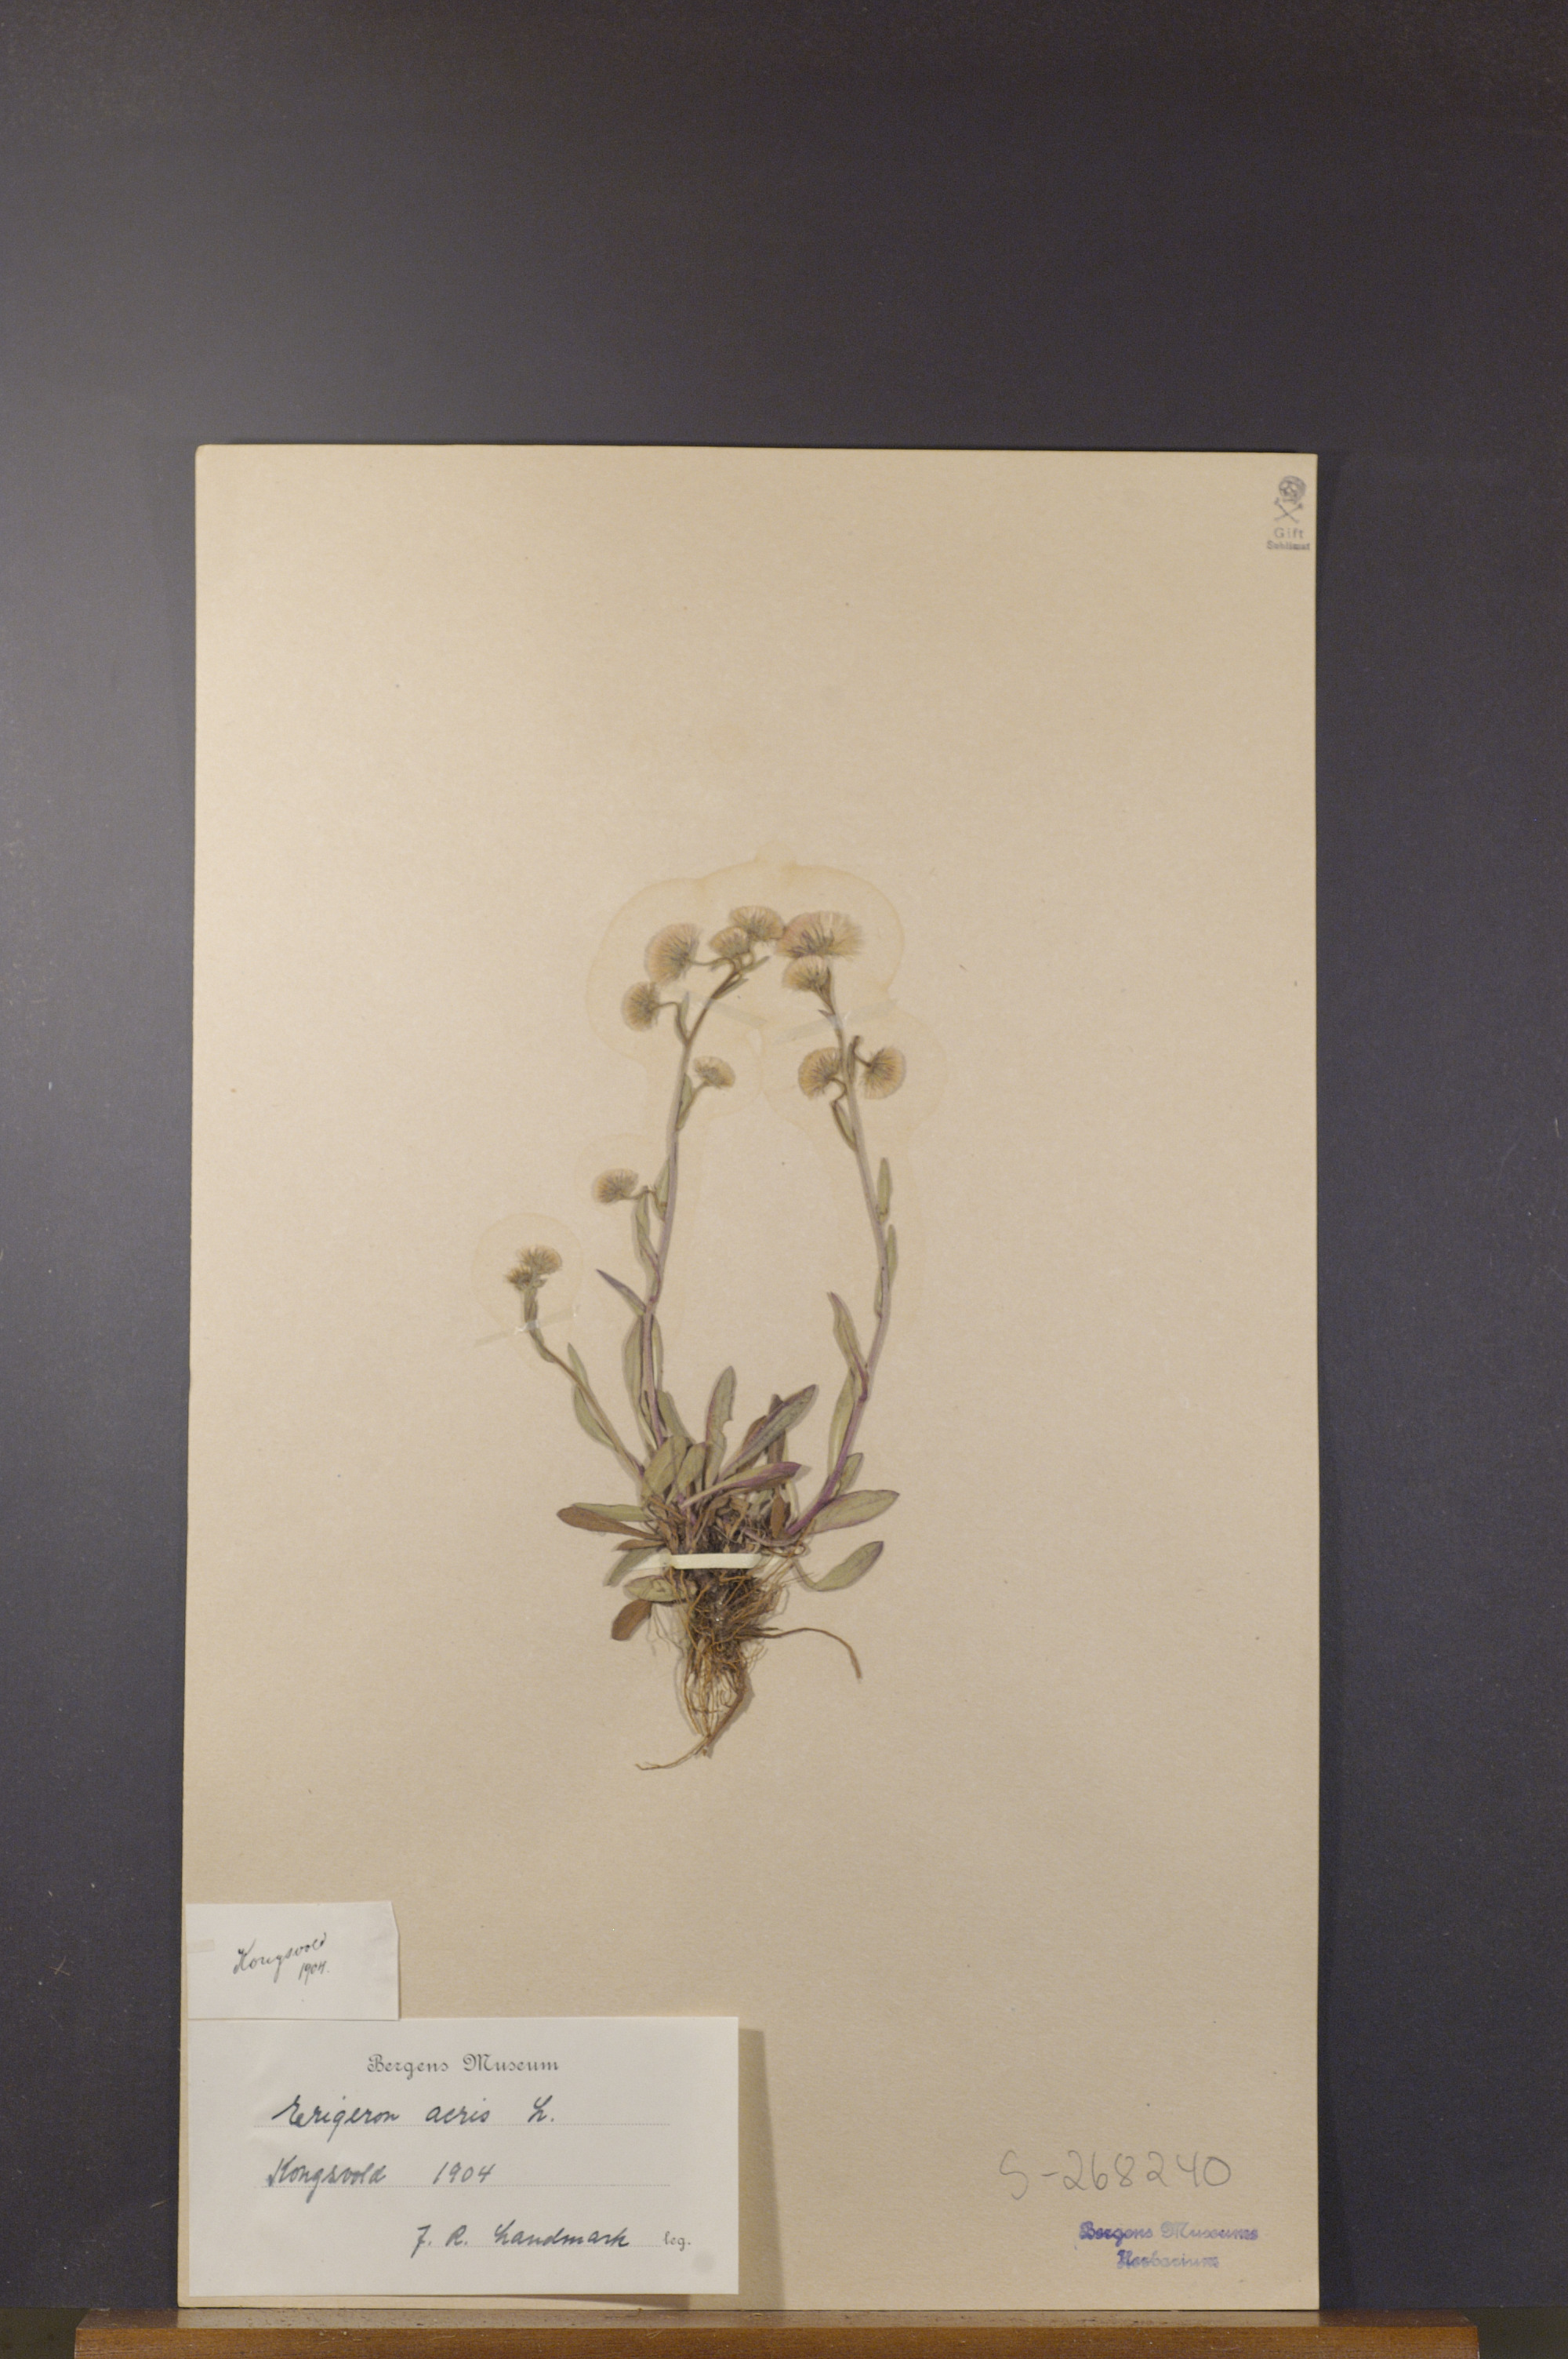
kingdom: Plantae
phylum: Tracheophyta
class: Magnoliopsida
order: Asterales
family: Asteraceae
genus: Erigeron
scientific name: Erigeron acris
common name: Blue fleabane
